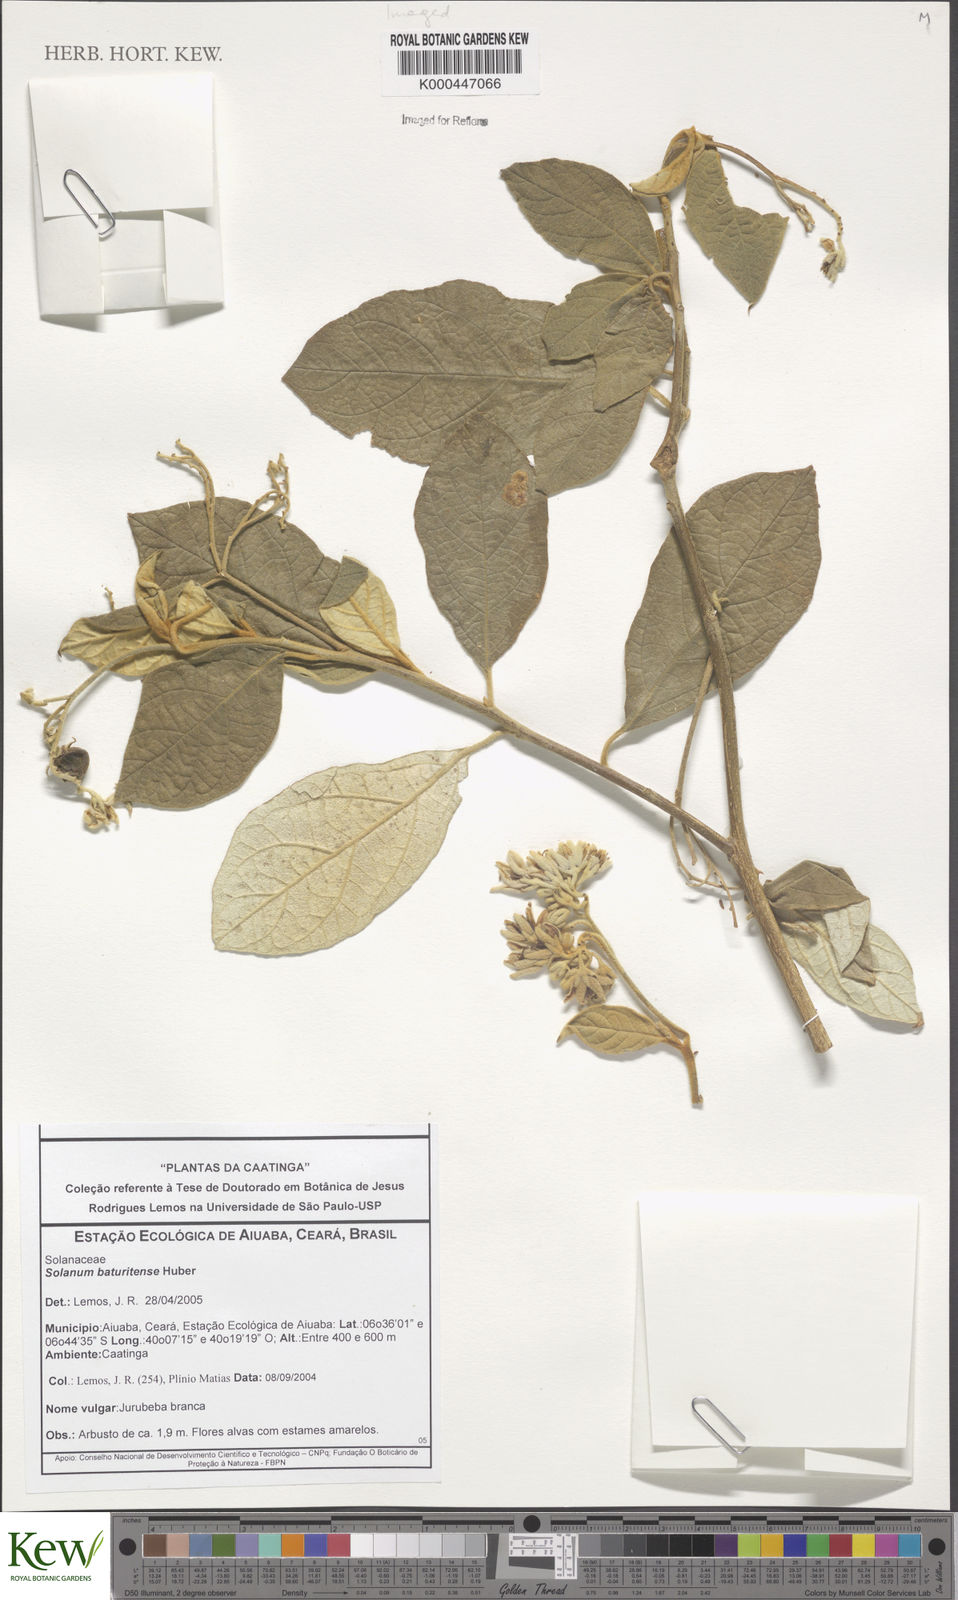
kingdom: Plantae
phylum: Tracheophyta
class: Magnoliopsida
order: Solanales
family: Solanaceae
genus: Solanum
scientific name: Solanum rhytidoandrum
